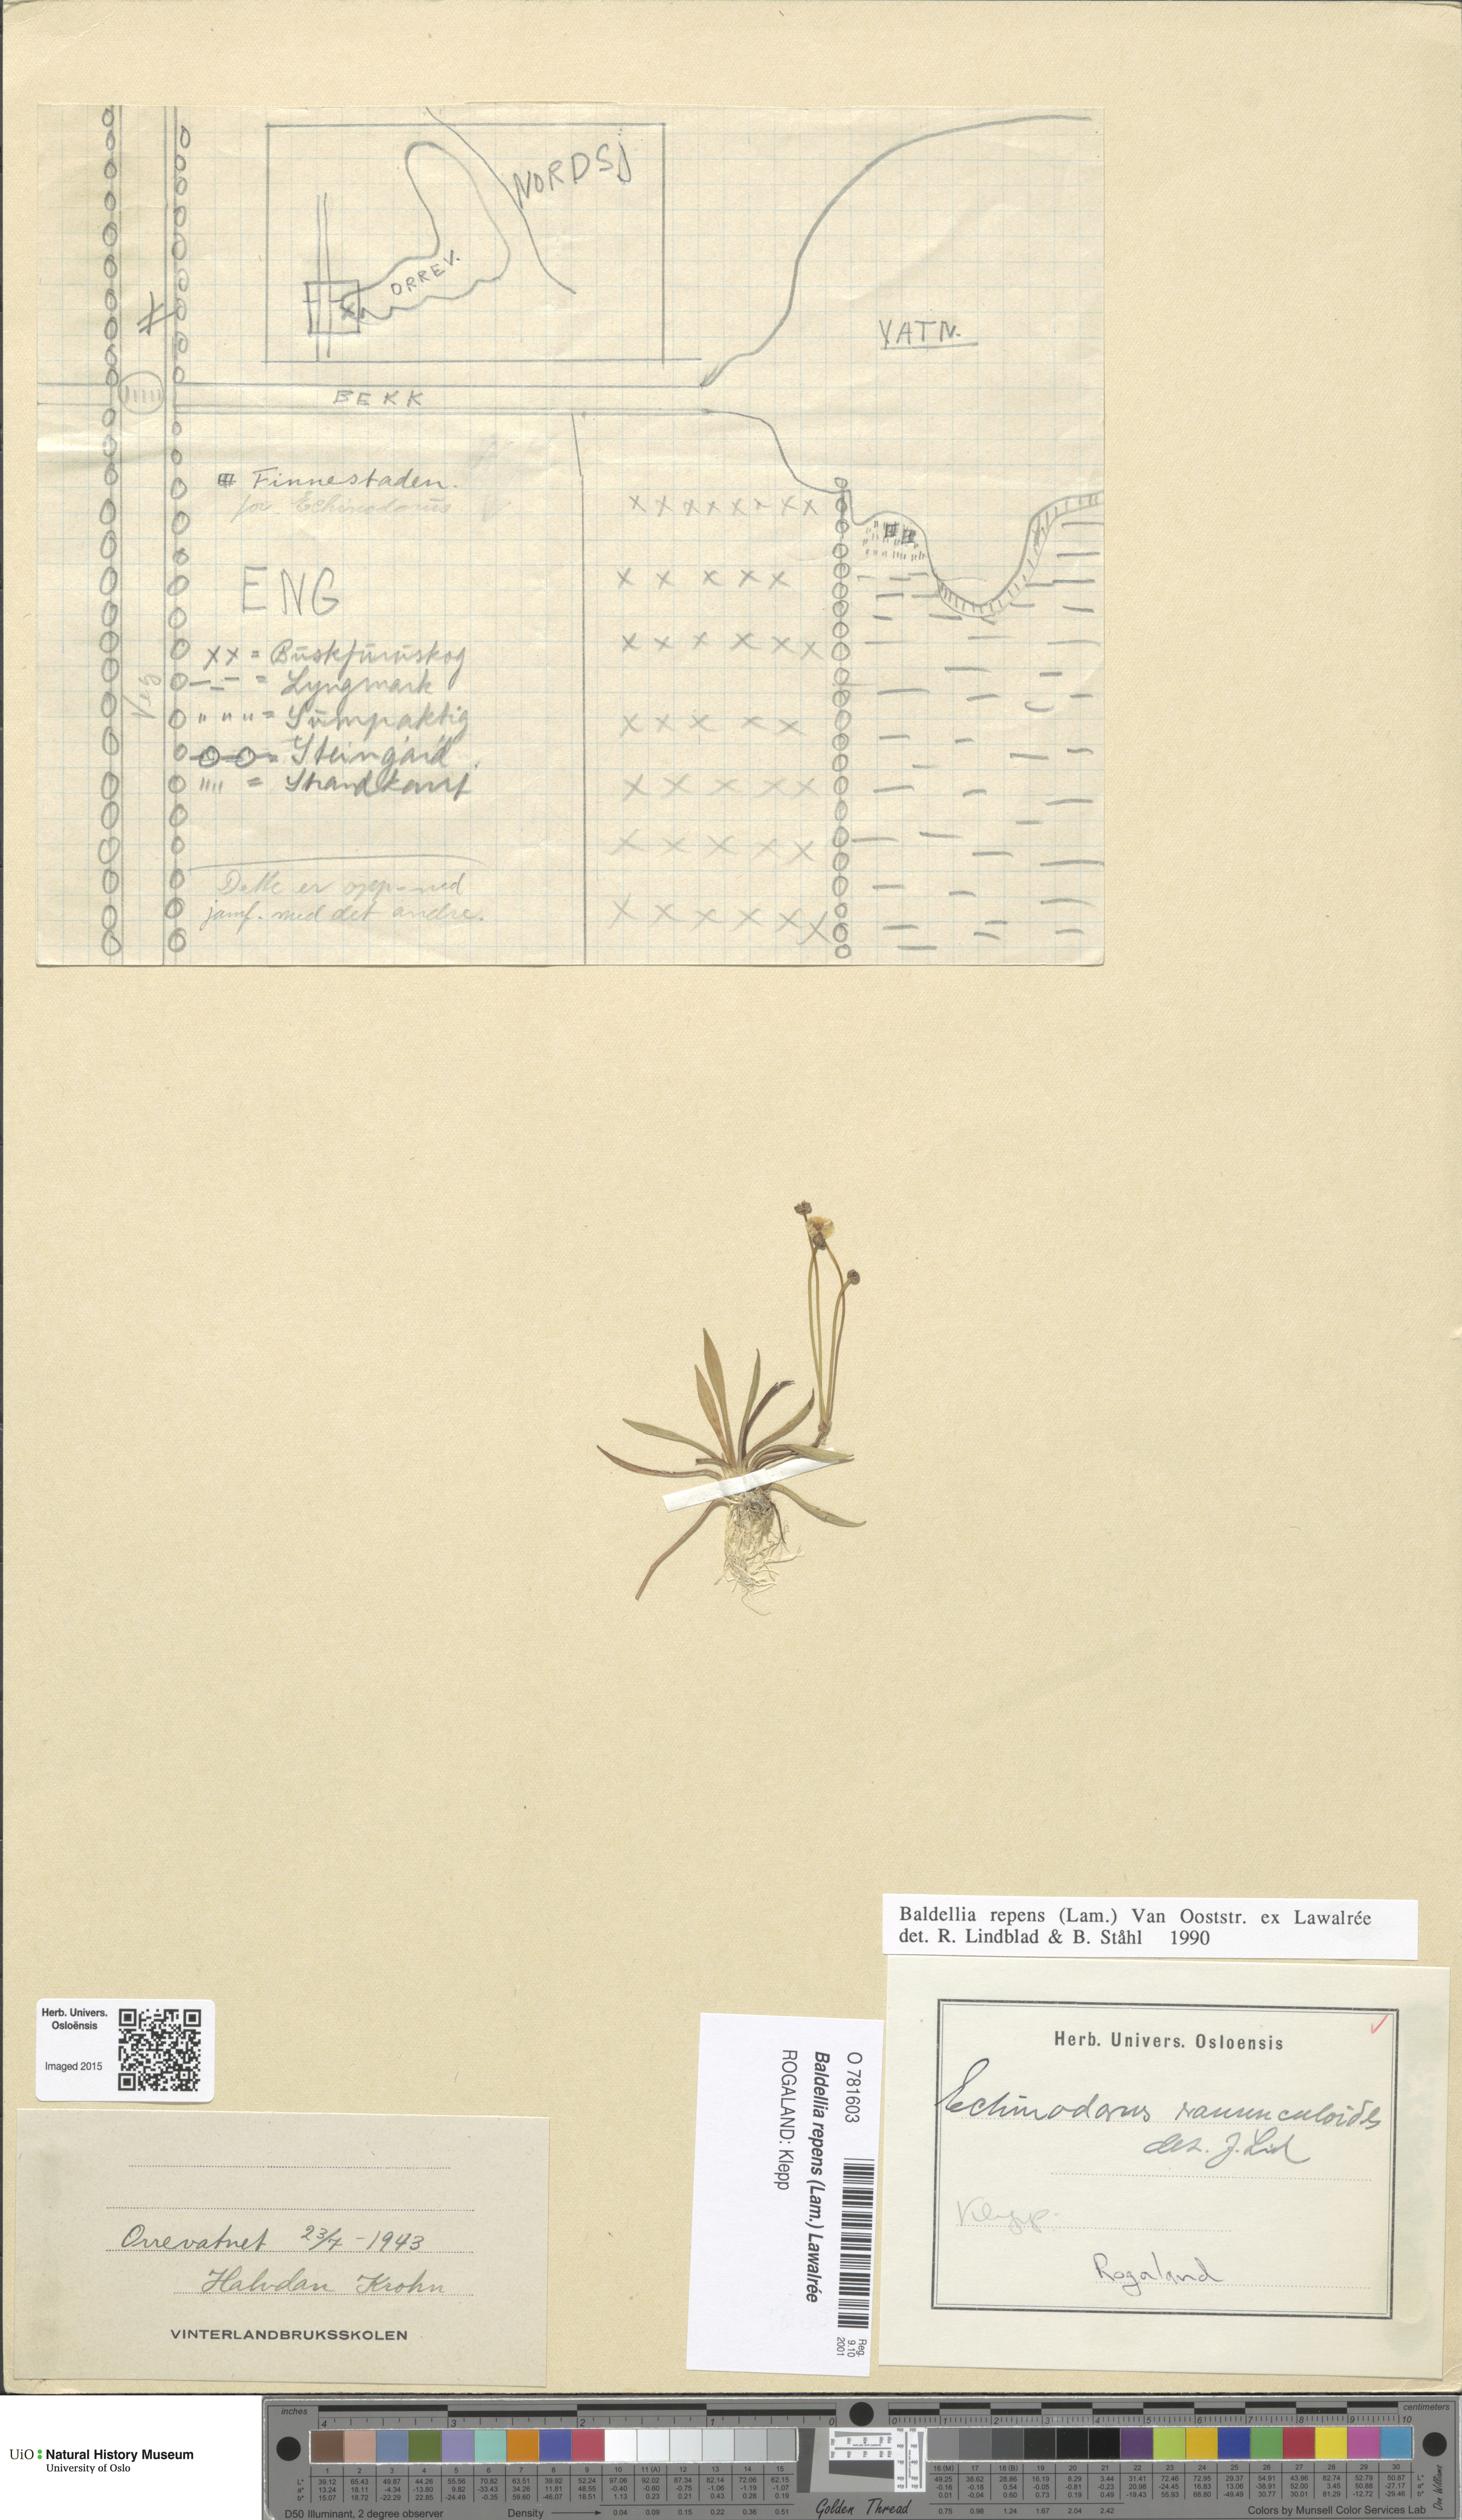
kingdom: Plantae
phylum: Tracheophyta
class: Liliopsida
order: Alismatales
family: Alismataceae
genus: Baldellia
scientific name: Baldellia repens
